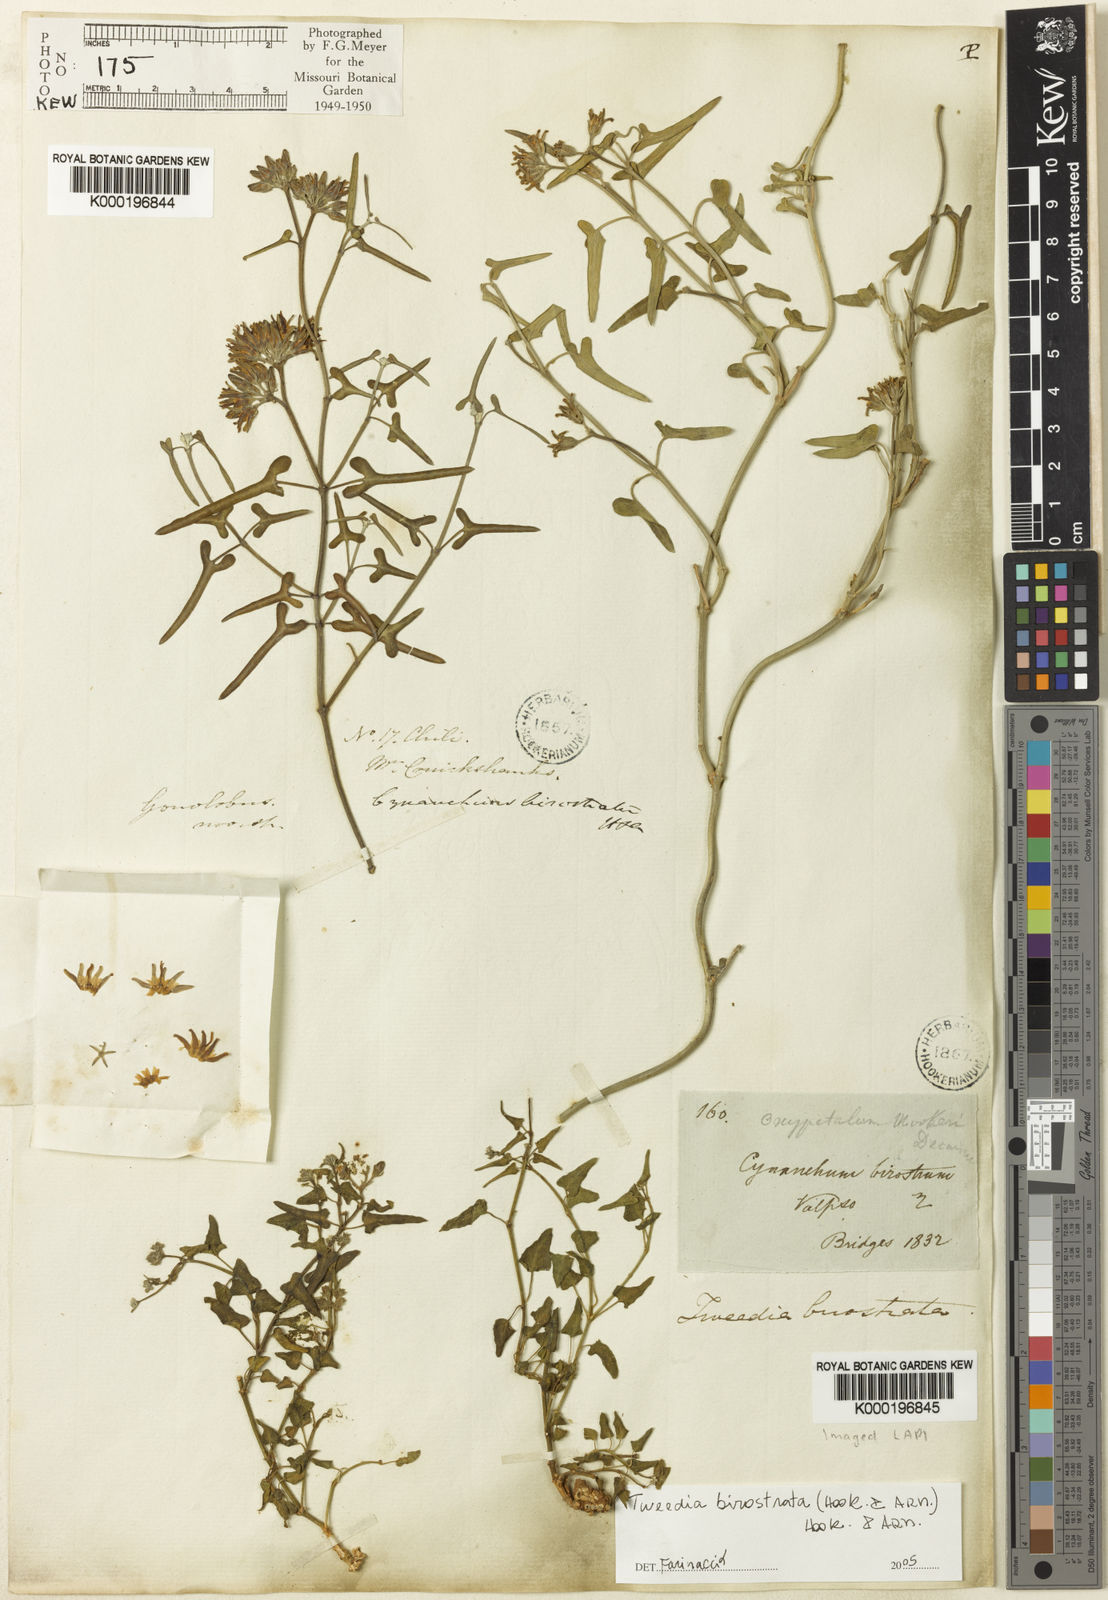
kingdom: Plantae
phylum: Tracheophyta
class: Magnoliopsida
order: Gentianales
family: Apocynaceae
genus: Tweedia
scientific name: Tweedia birostrata
